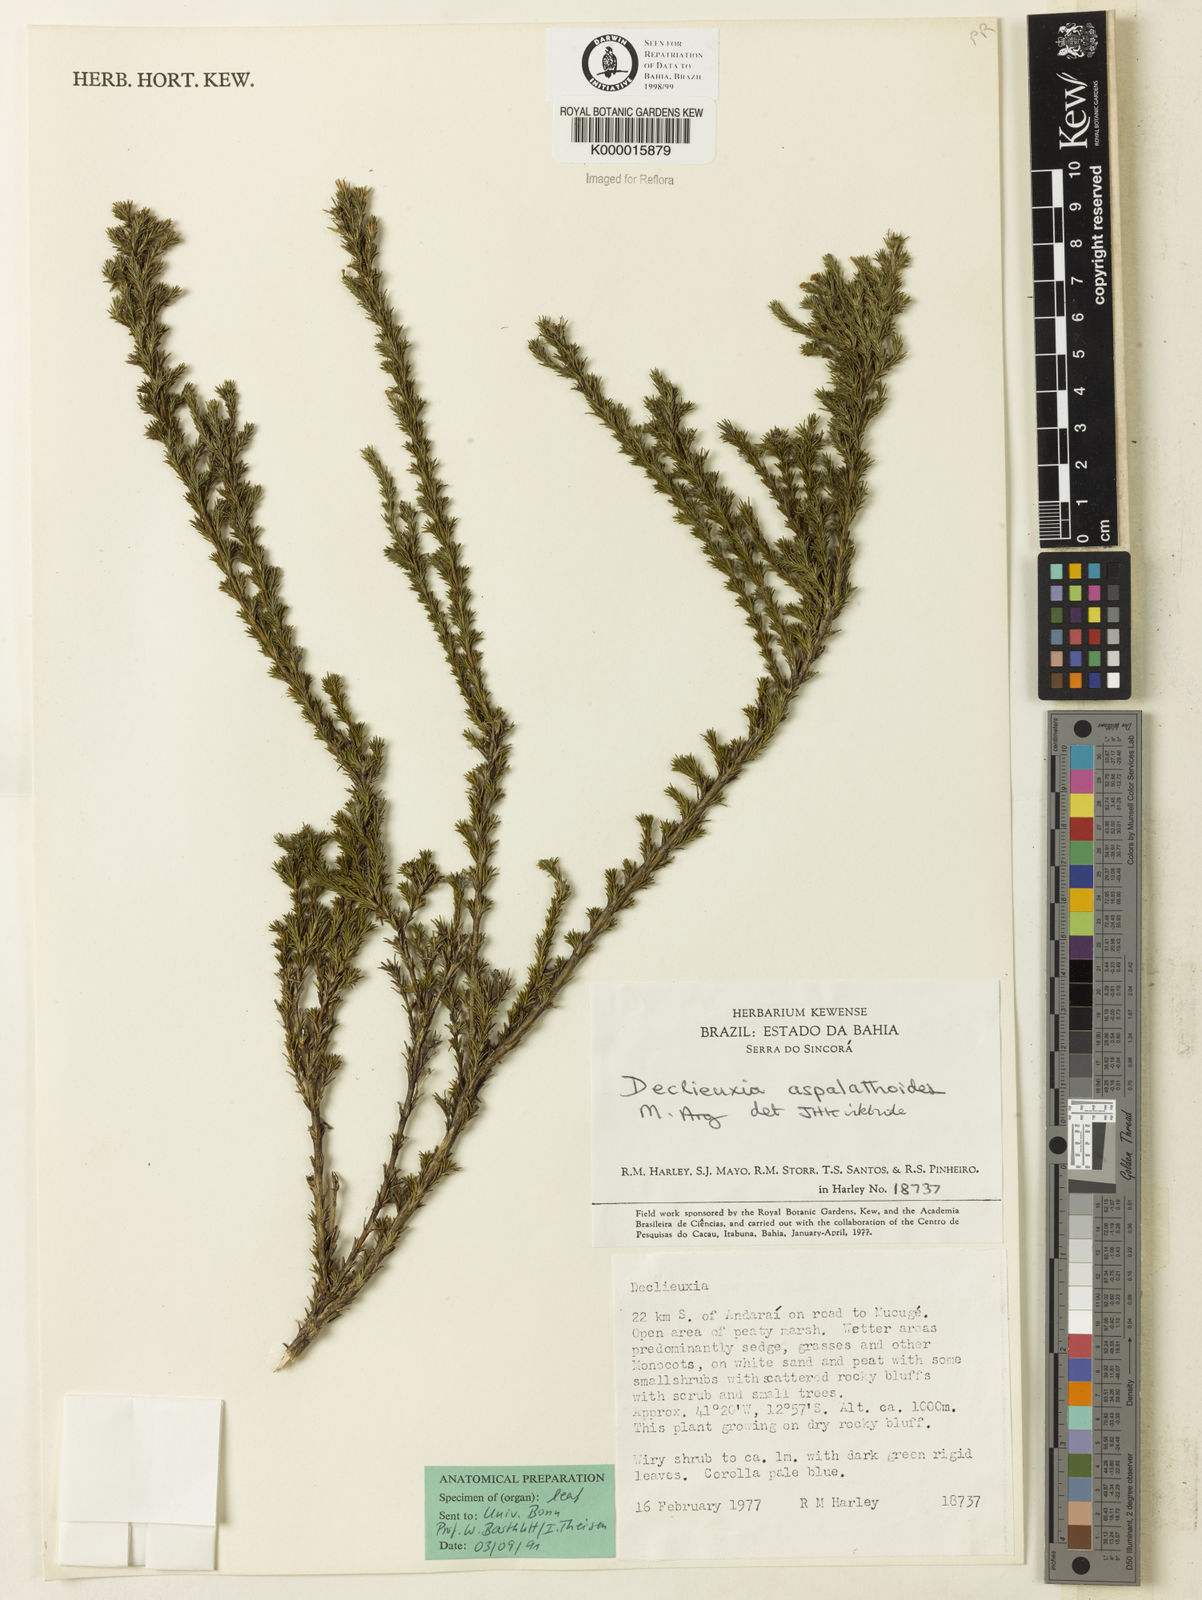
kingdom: Plantae
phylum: Tracheophyta
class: Magnoliopsida
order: Gentianales
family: Rubiaceae
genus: Declieuxia
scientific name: Declieuxia aspalathoides
